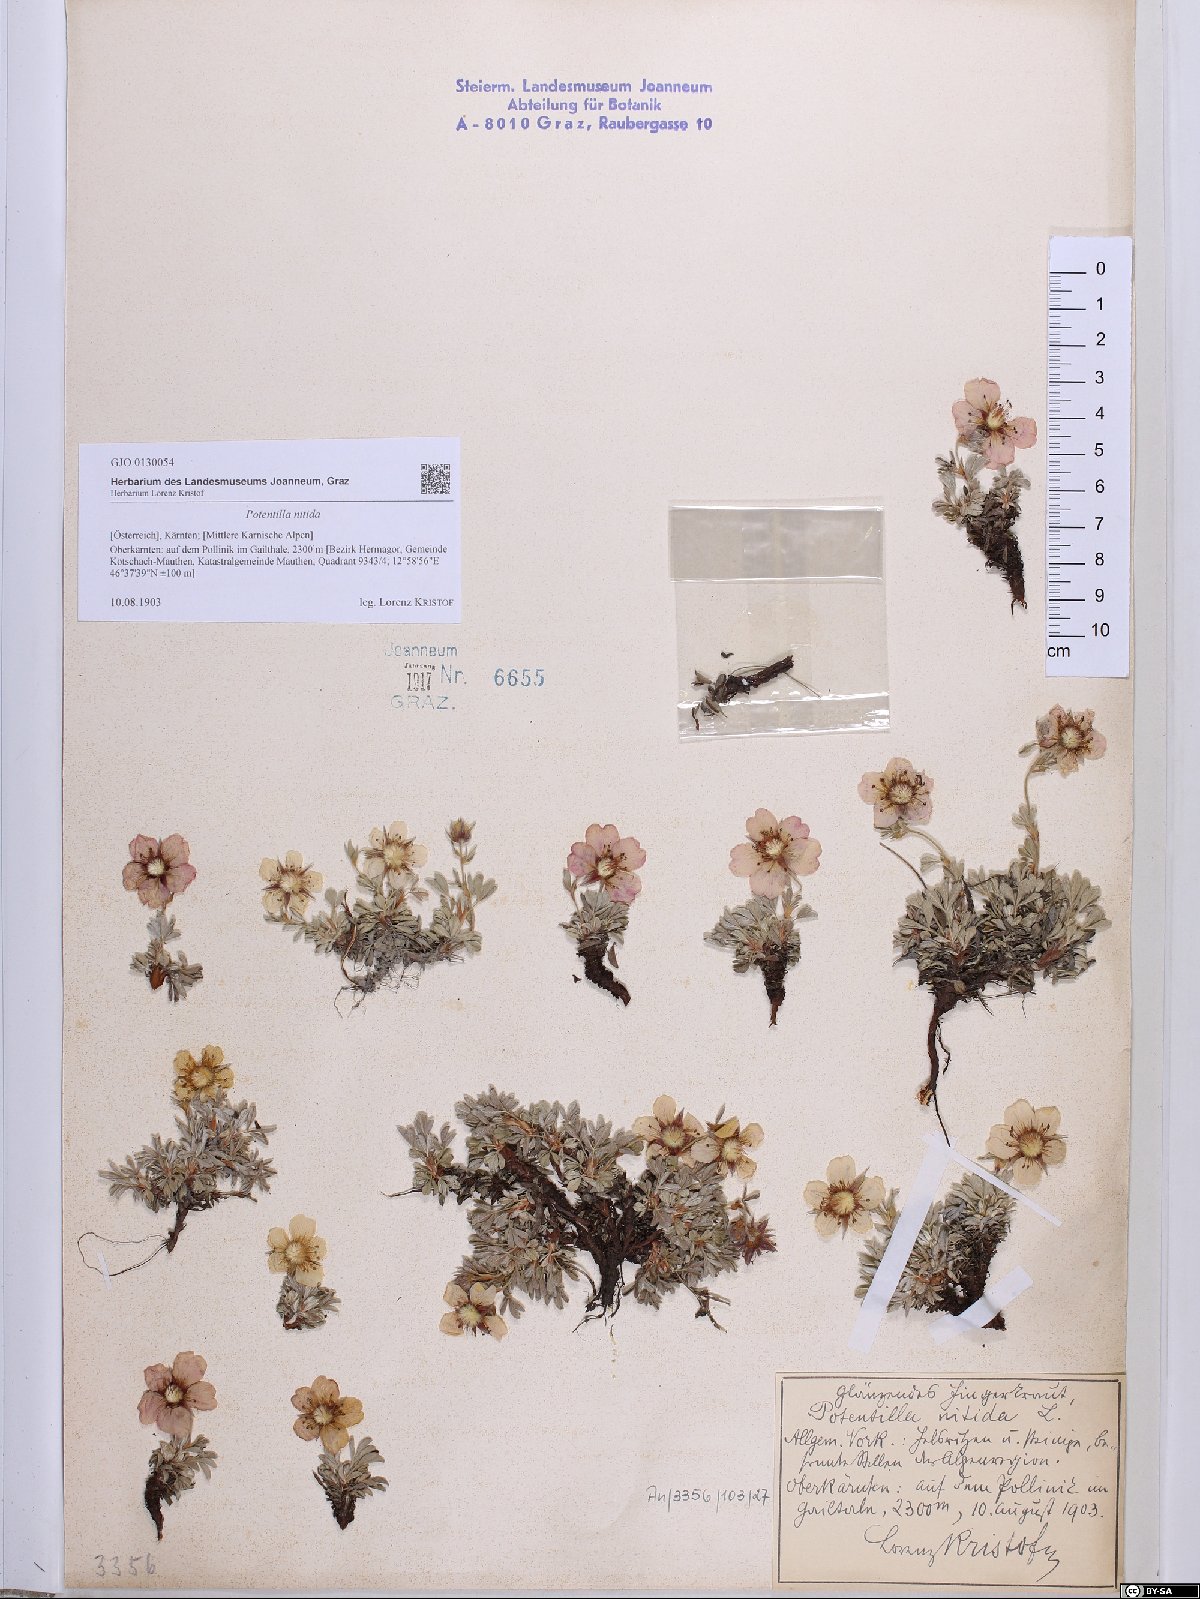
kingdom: Plantae
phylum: Tracheophyta
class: Magnoliopsida
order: Rosales
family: Rosaceae
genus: Potentilla
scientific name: Potentilla nitida
